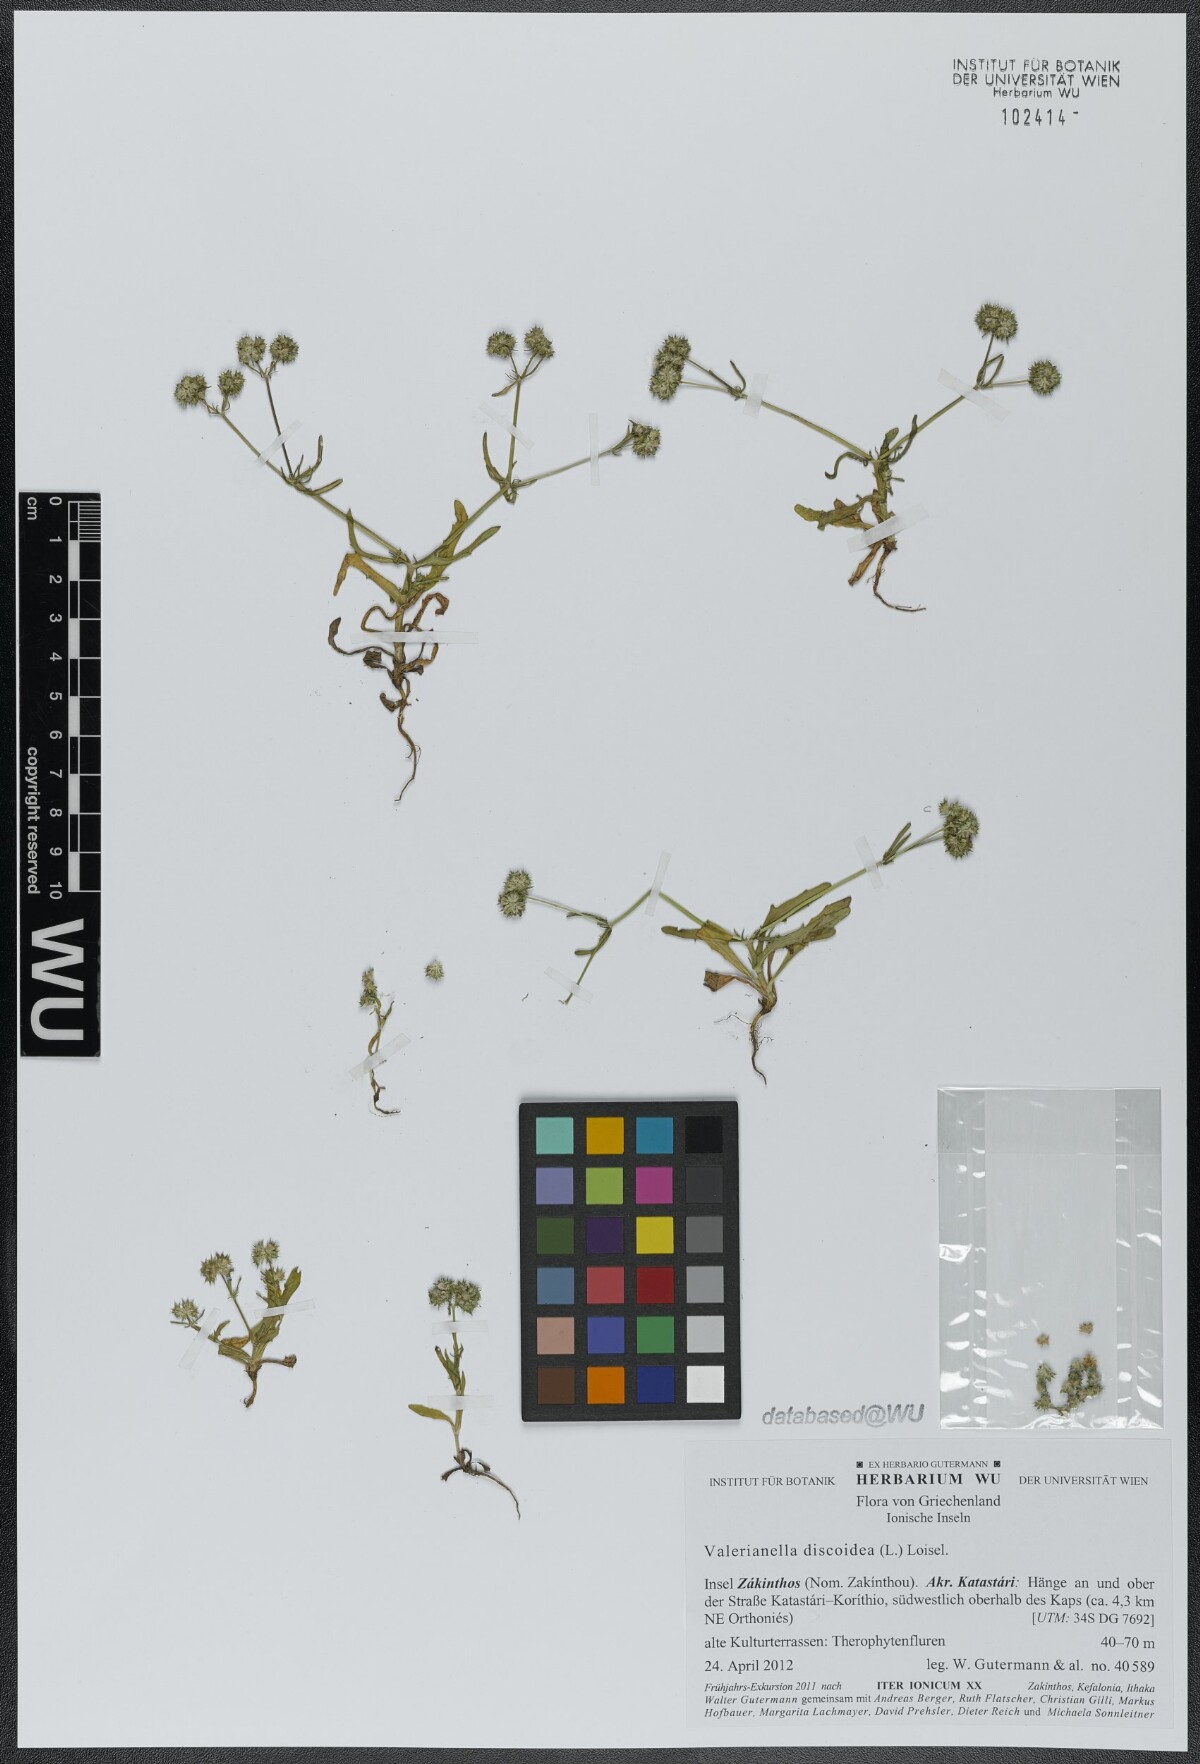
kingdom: Plantae
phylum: Tracheophyta
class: Magnoliopsida
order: Dipsacales
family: Caprifoliaceae
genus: Valerianella
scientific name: Valerianella discoidea
